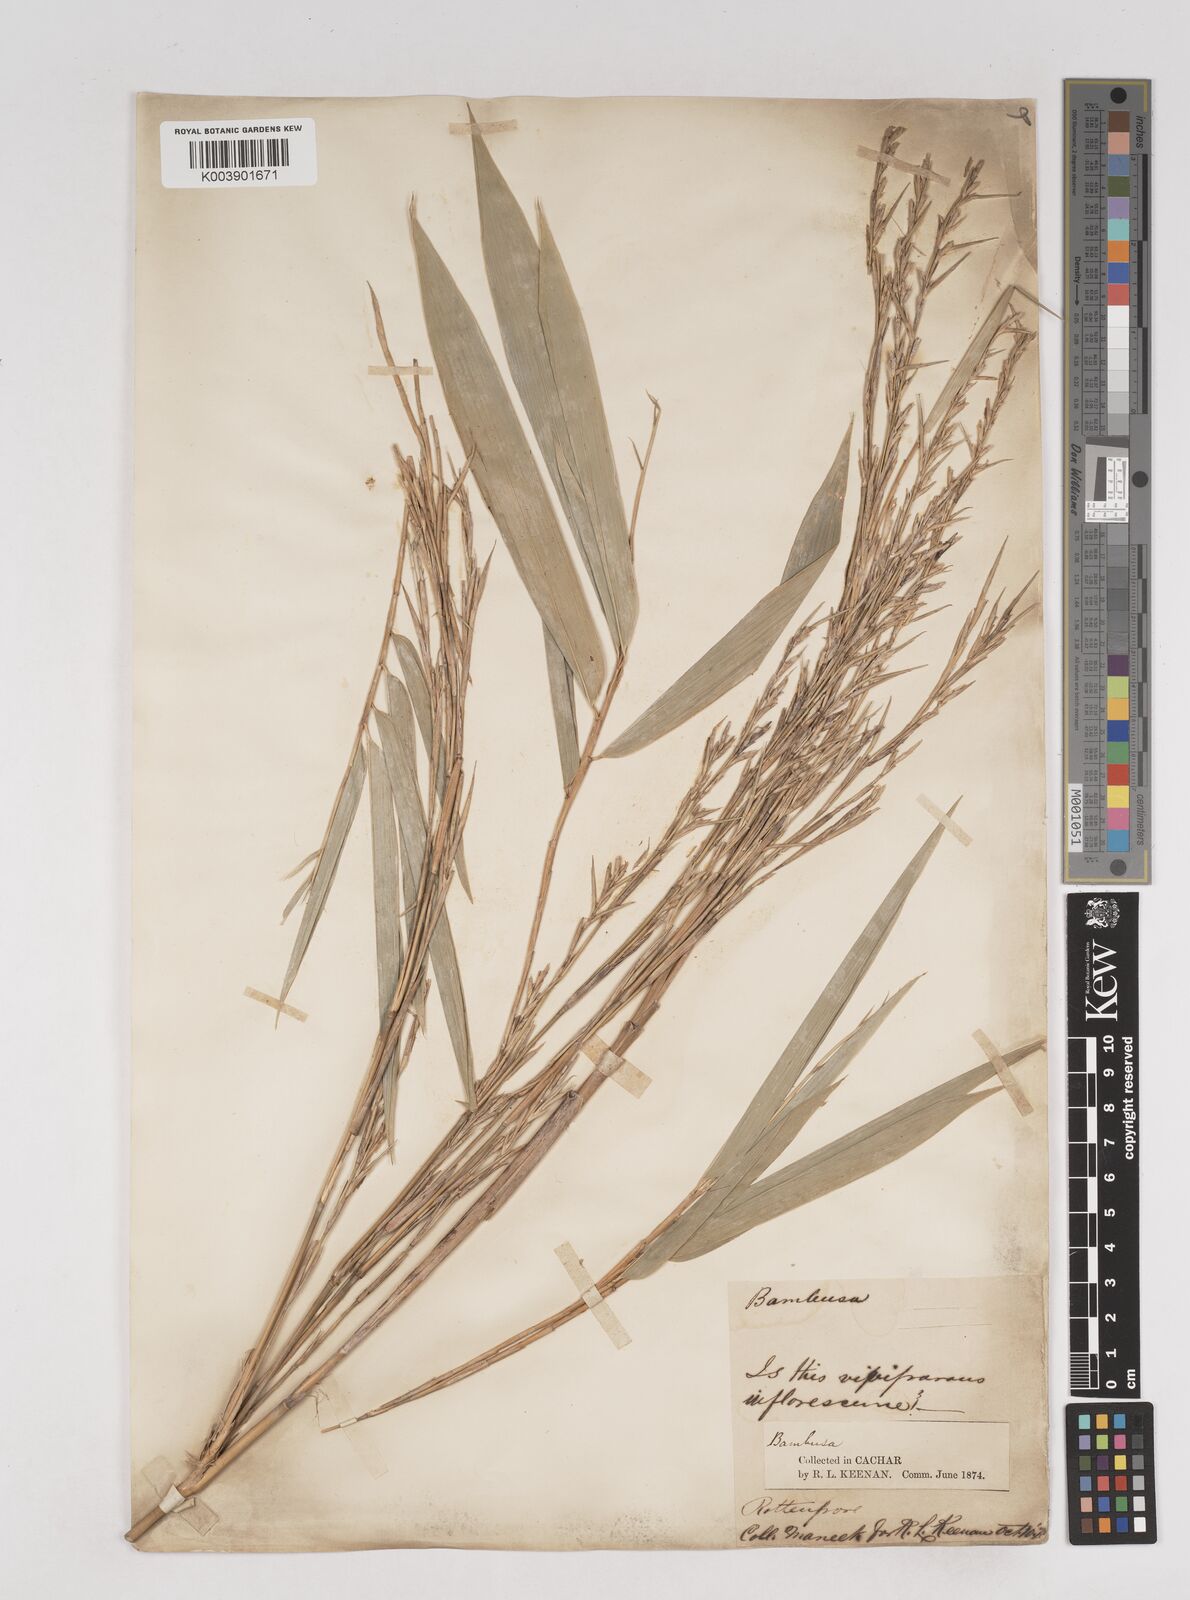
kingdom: Plantae
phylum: Tracheophyta
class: Liliopsida
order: Poales
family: Poaceae
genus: Schizostachyum
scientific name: Schizostachyum
